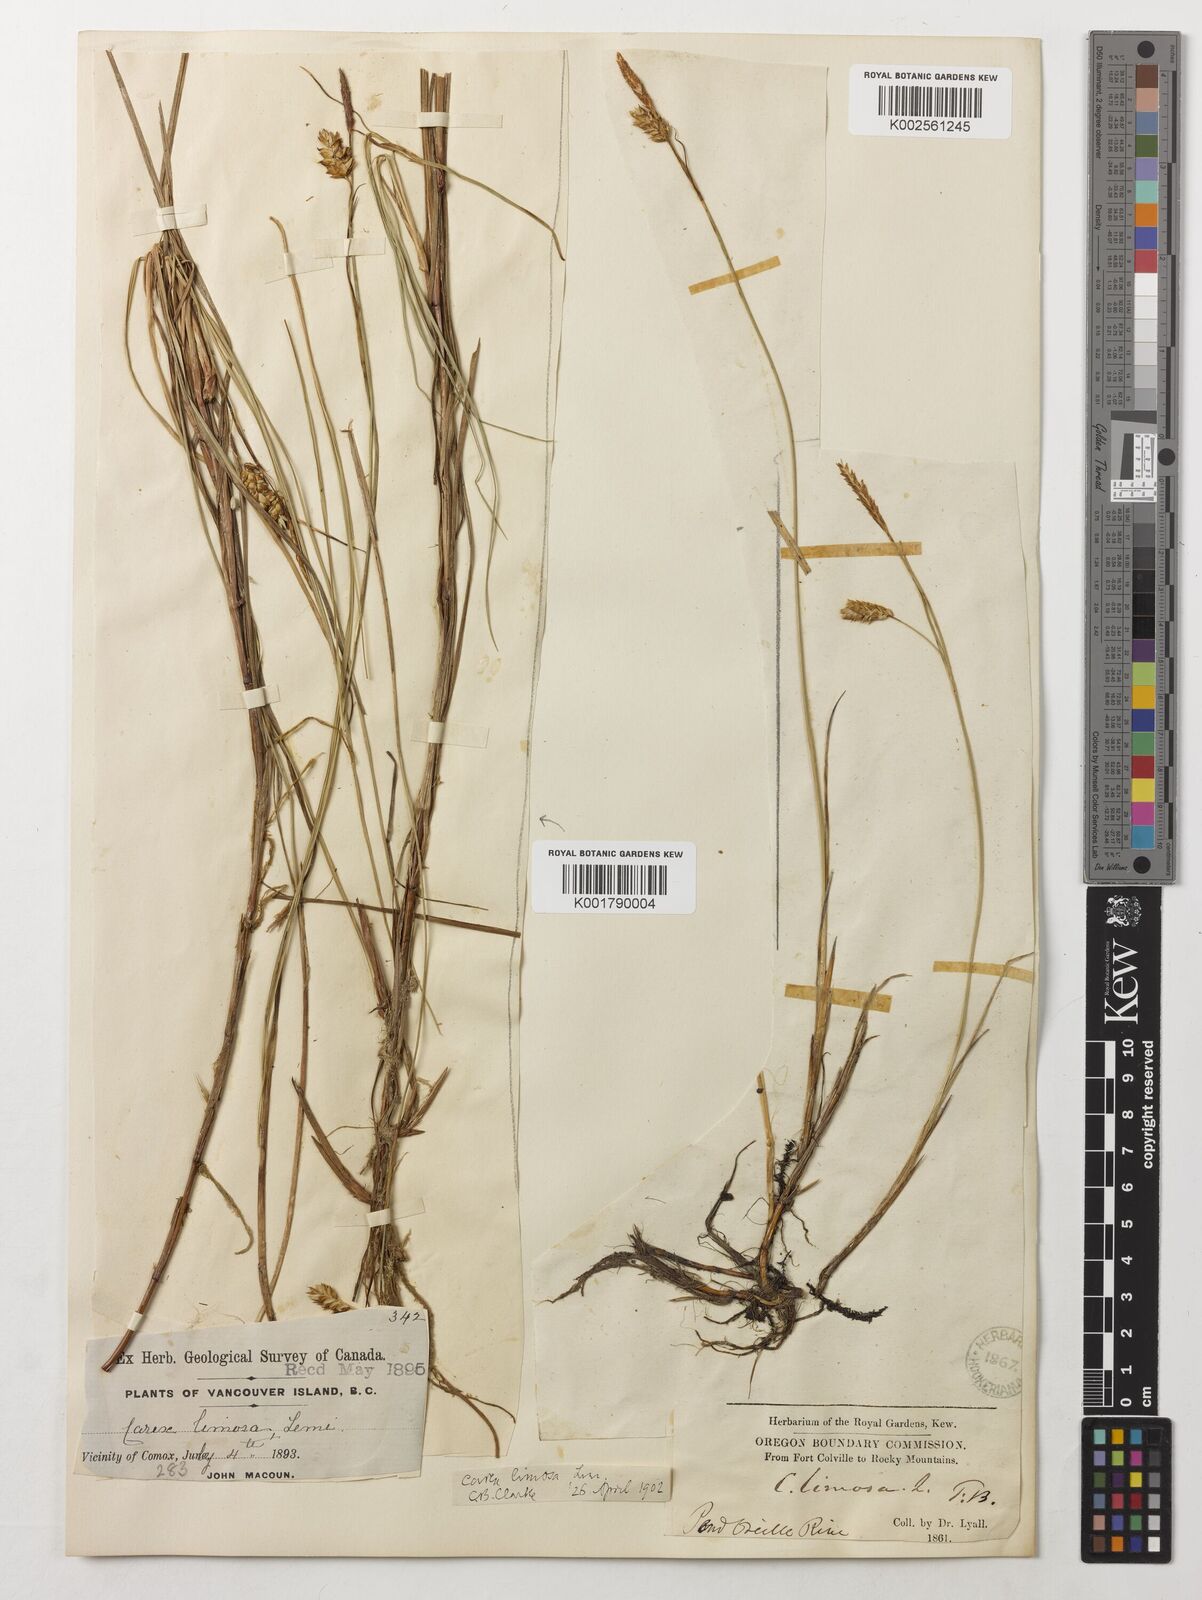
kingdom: Plantae
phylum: Tracheophyta
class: Liliopsida
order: Poales
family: Cyperaceae
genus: Carex
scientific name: Carex limosa
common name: Bog sedge
